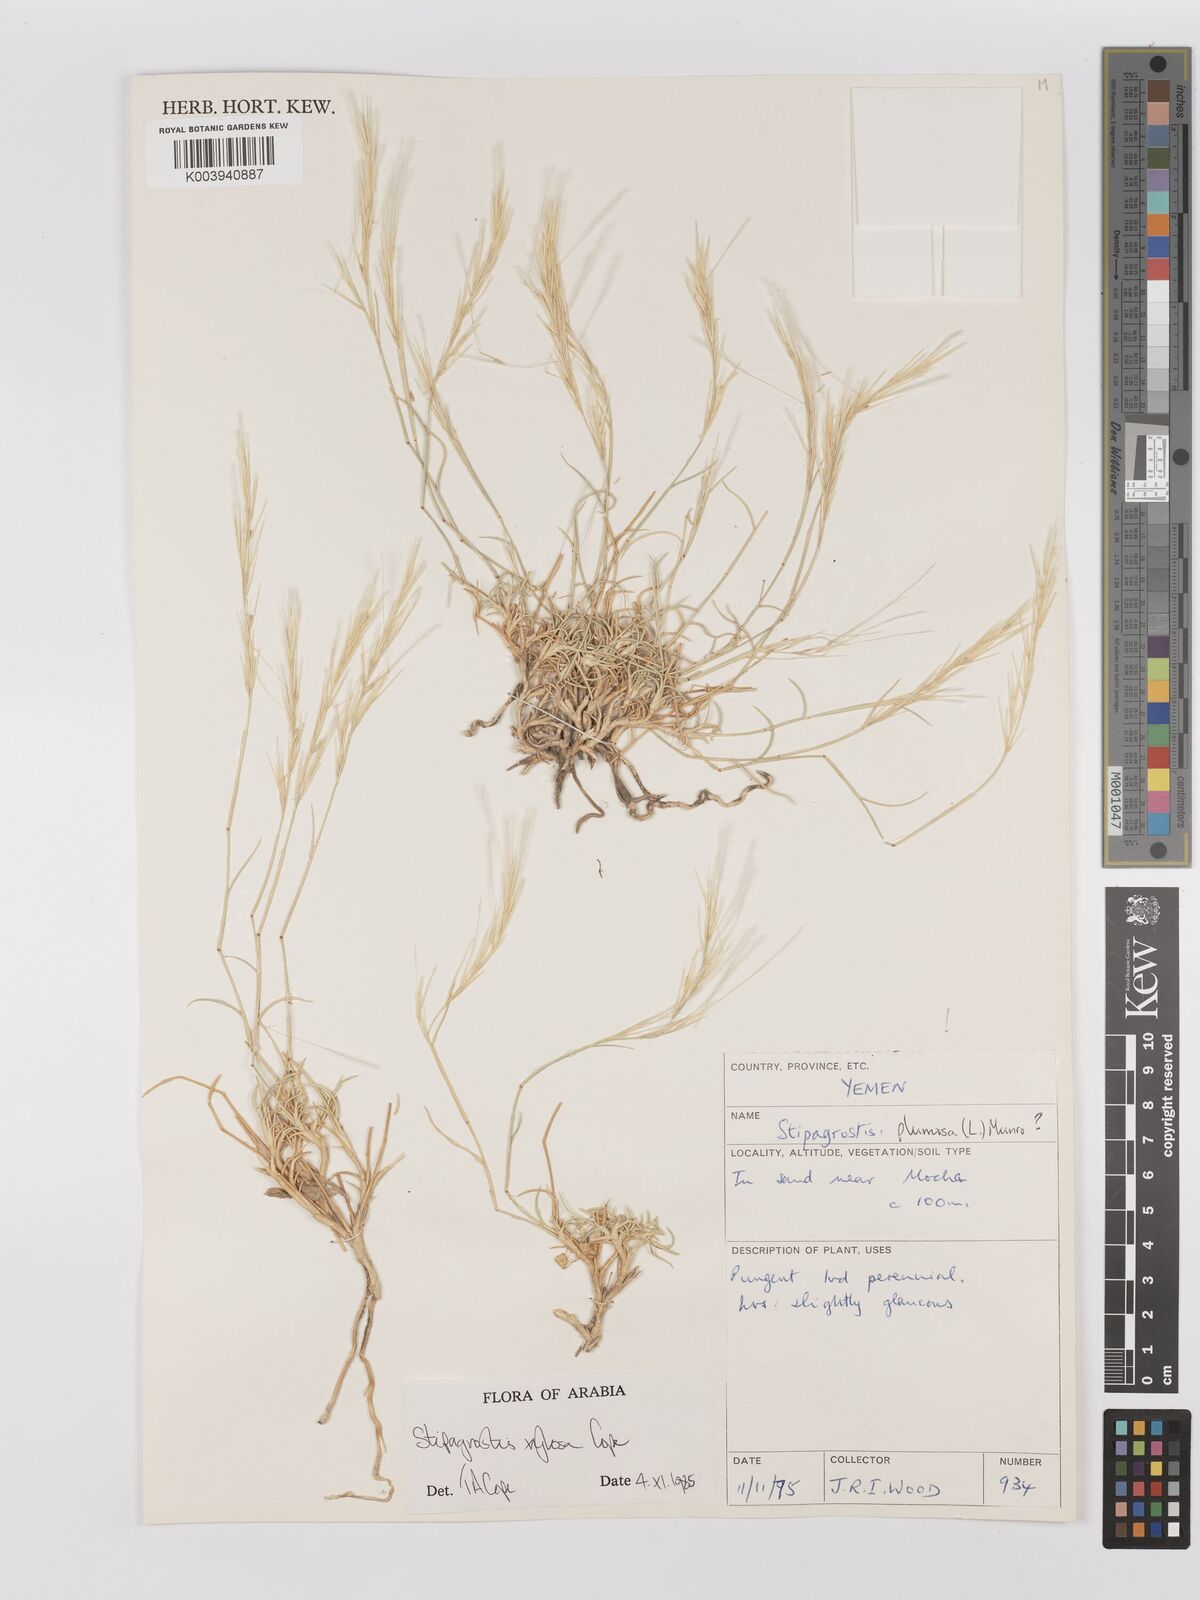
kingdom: Plantae
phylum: Tracheophyta
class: Liliopsida
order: Poales
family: Poaceae
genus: Stipagrostis
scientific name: Stipagrostis xylosa
